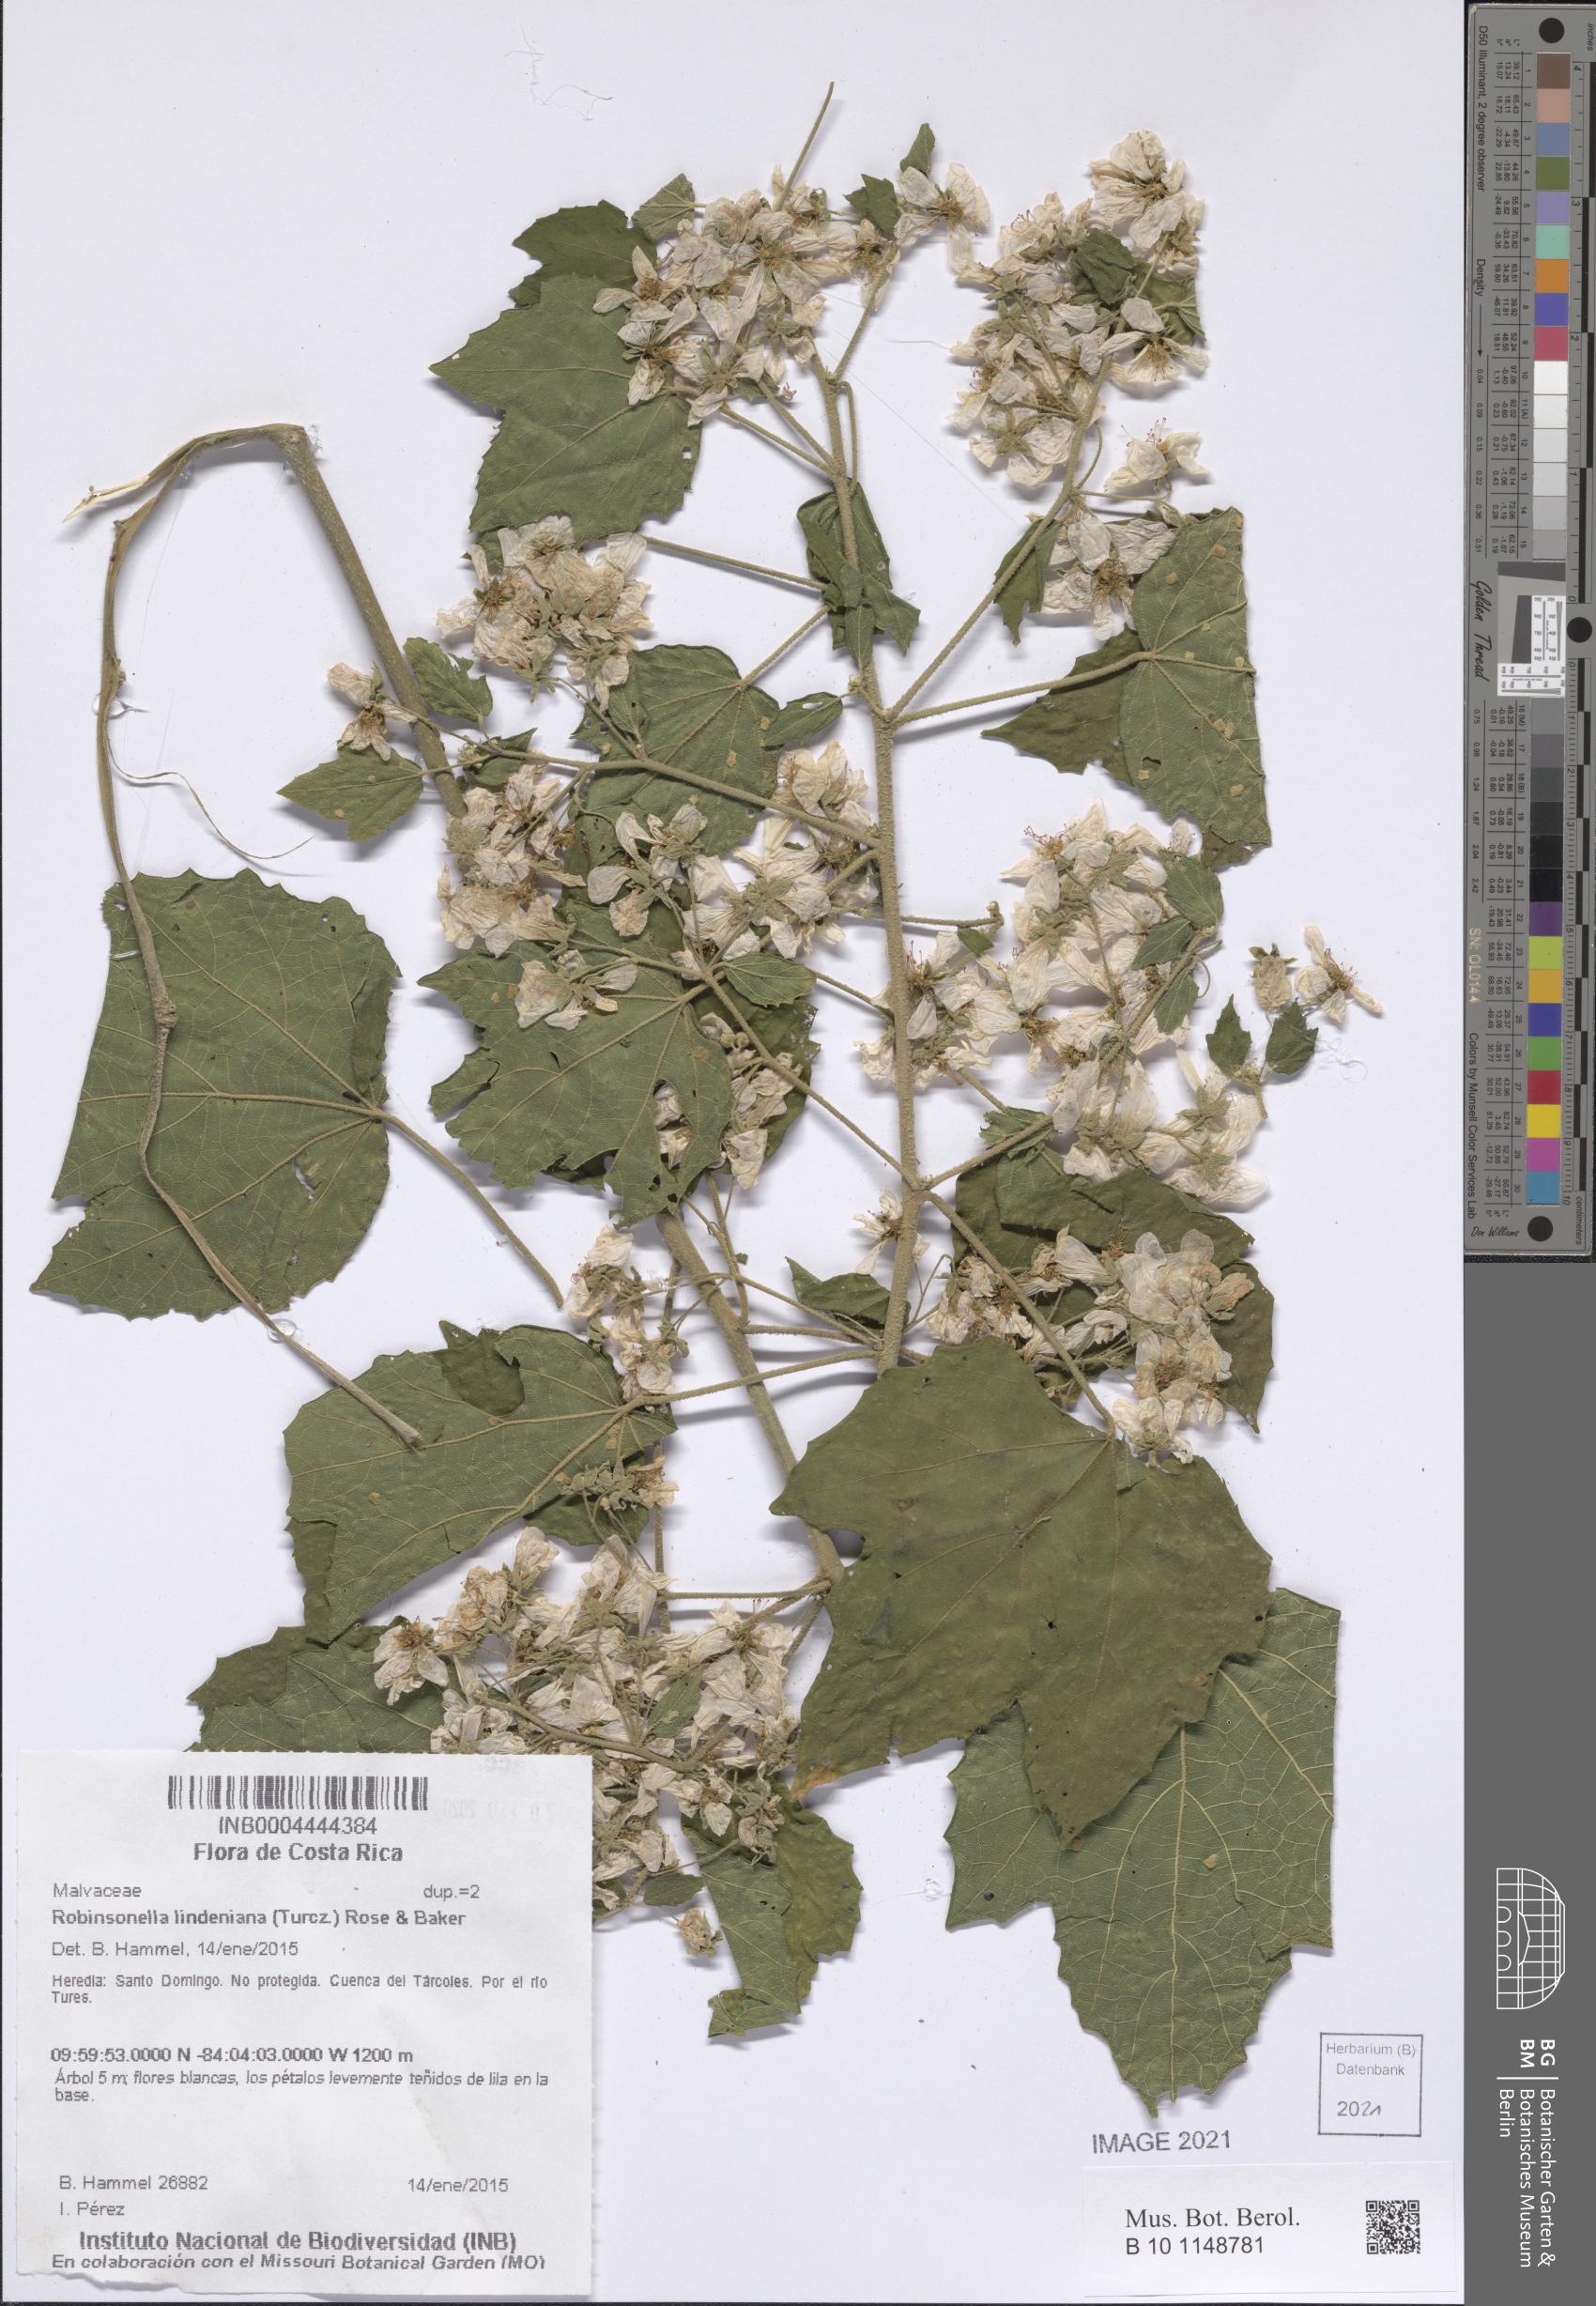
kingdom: Plantae
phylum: Tracheophyta
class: Magnoliopsida
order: Malvales
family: Malvaceae
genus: Robinsonella
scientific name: Robinsonella lindeniana
